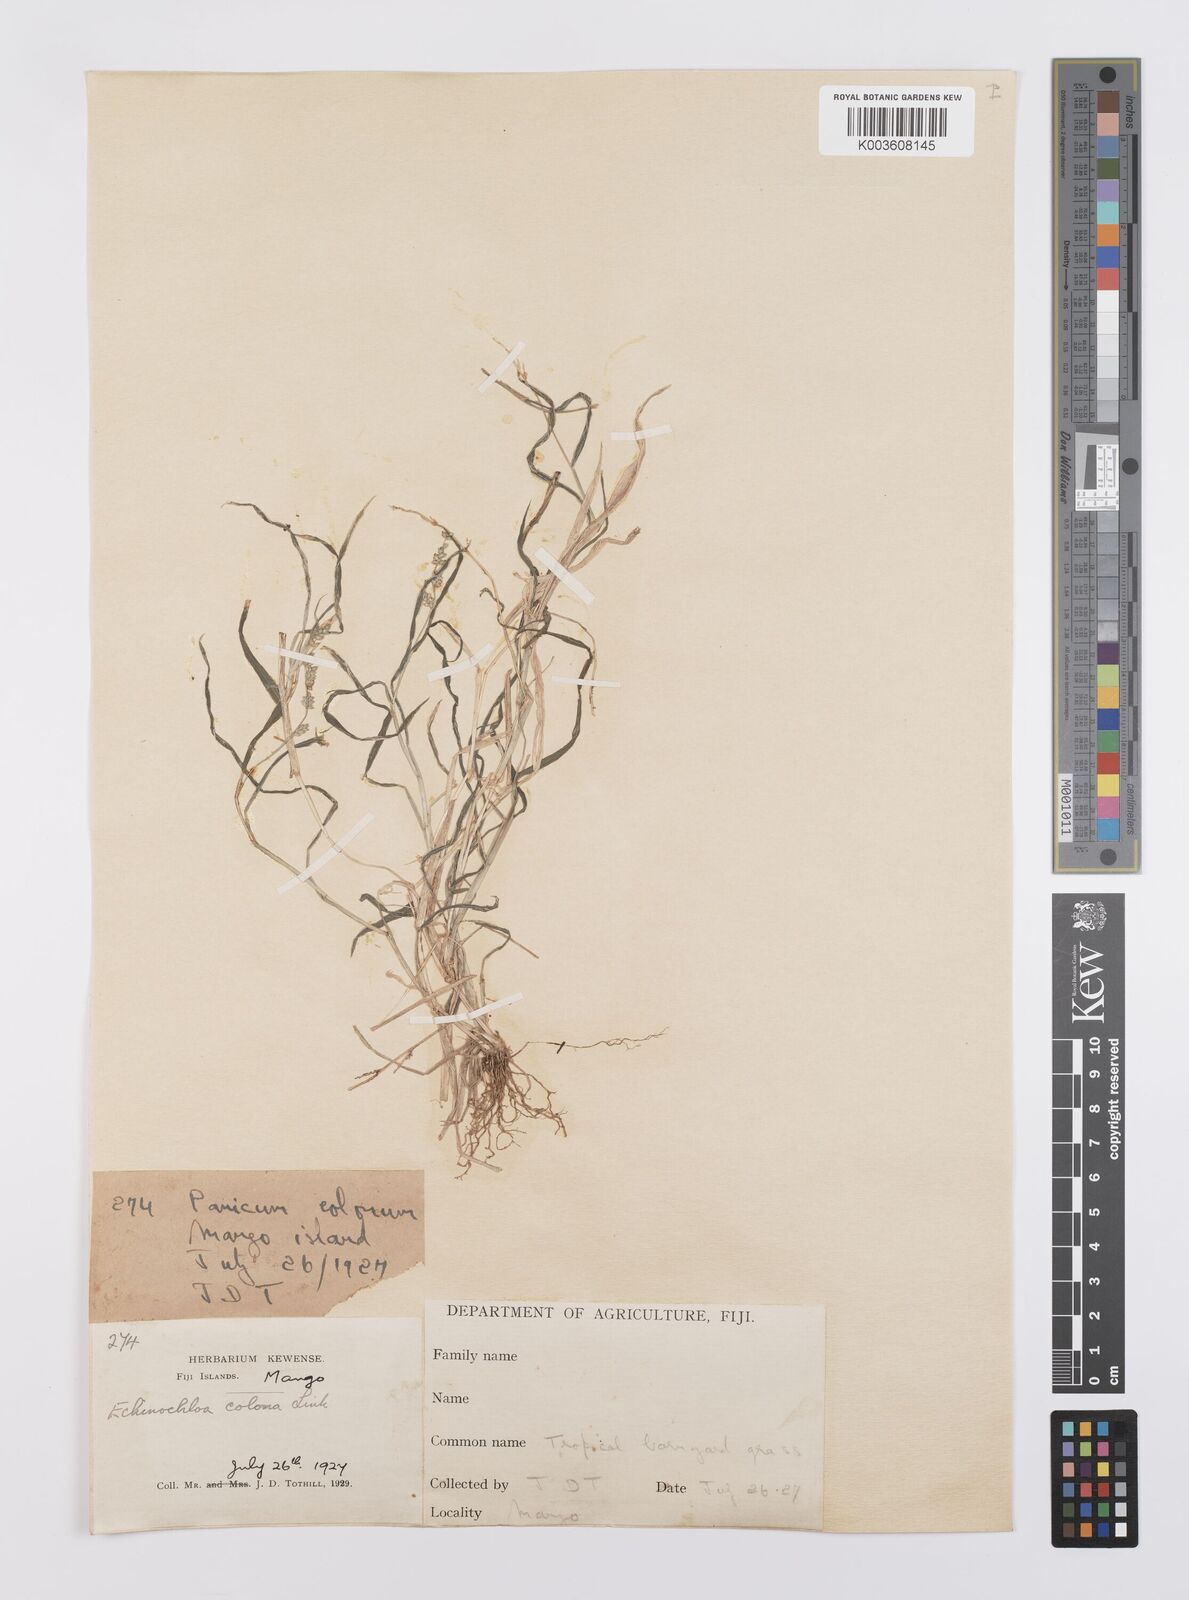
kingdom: Plantae
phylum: Tracheophyta
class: Liliopsida
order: Poales
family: Poaceae
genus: Echinochloa
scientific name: Echinochloa colonum
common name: Jungle rice
